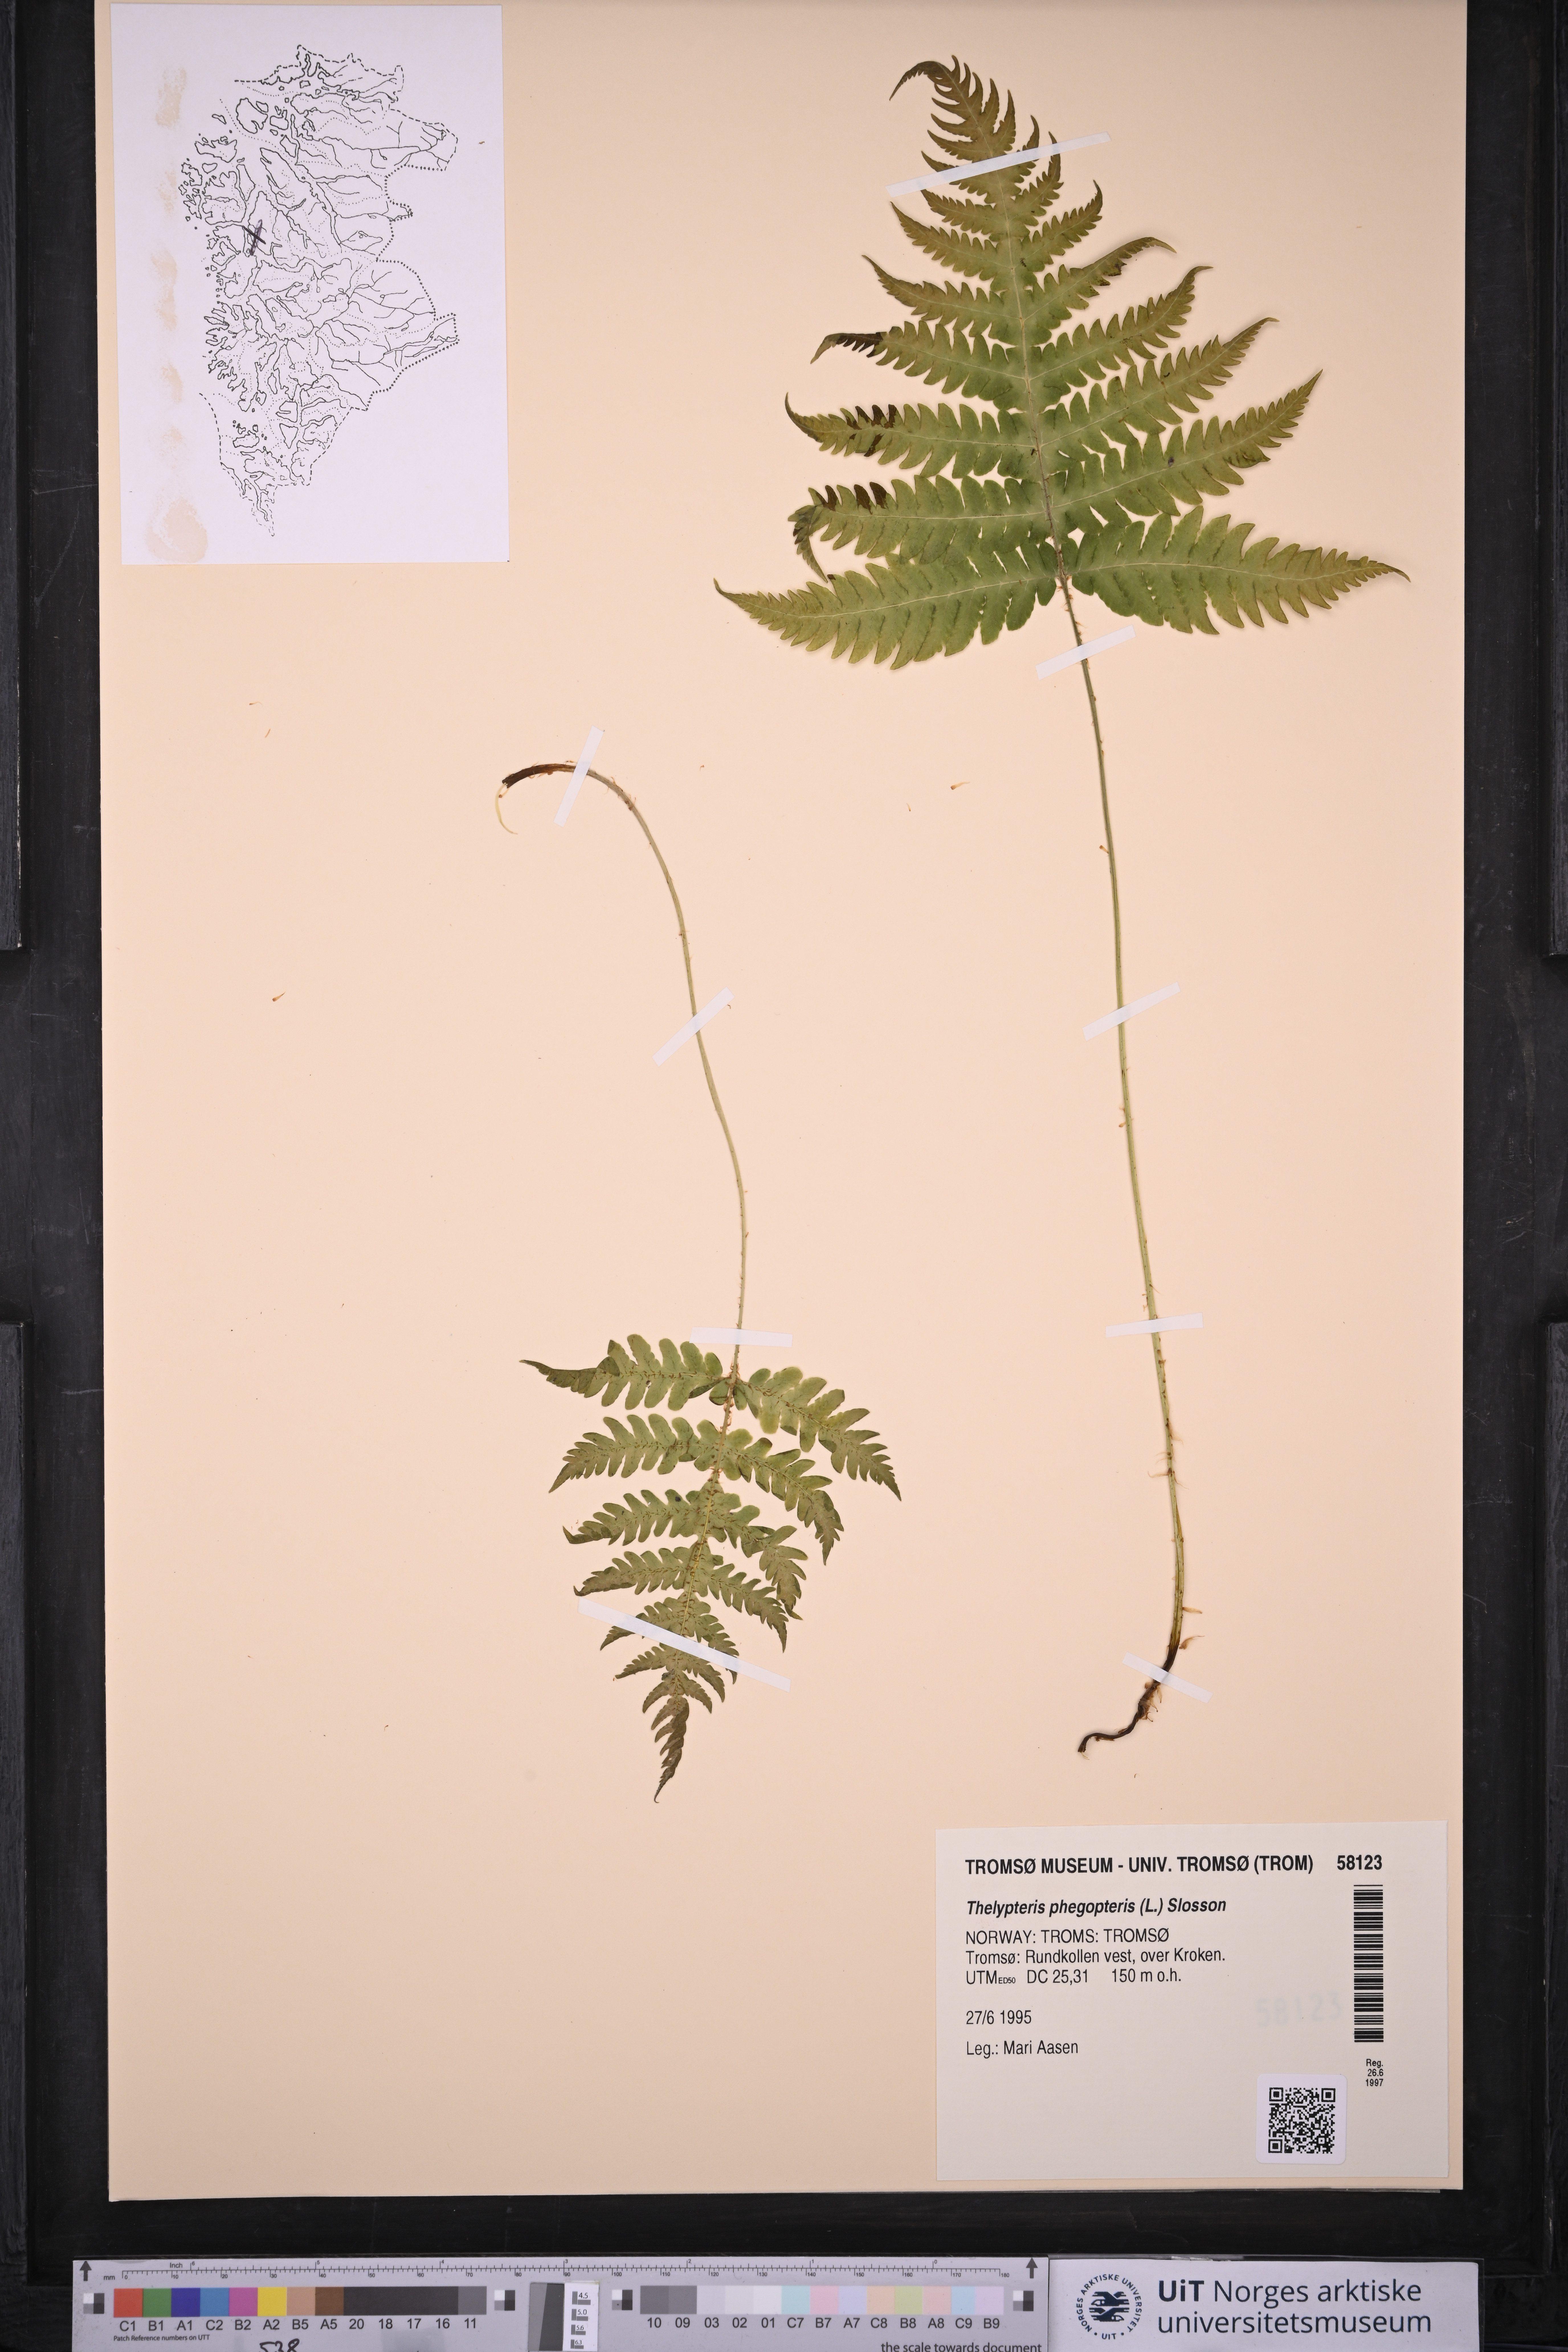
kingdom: Plantae
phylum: Tracheophyta
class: Polypodiopsida
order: Polypodiales
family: Thelypteridaceae
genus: Phegopteris
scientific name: Phegopteris connectilis
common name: Beech fern
